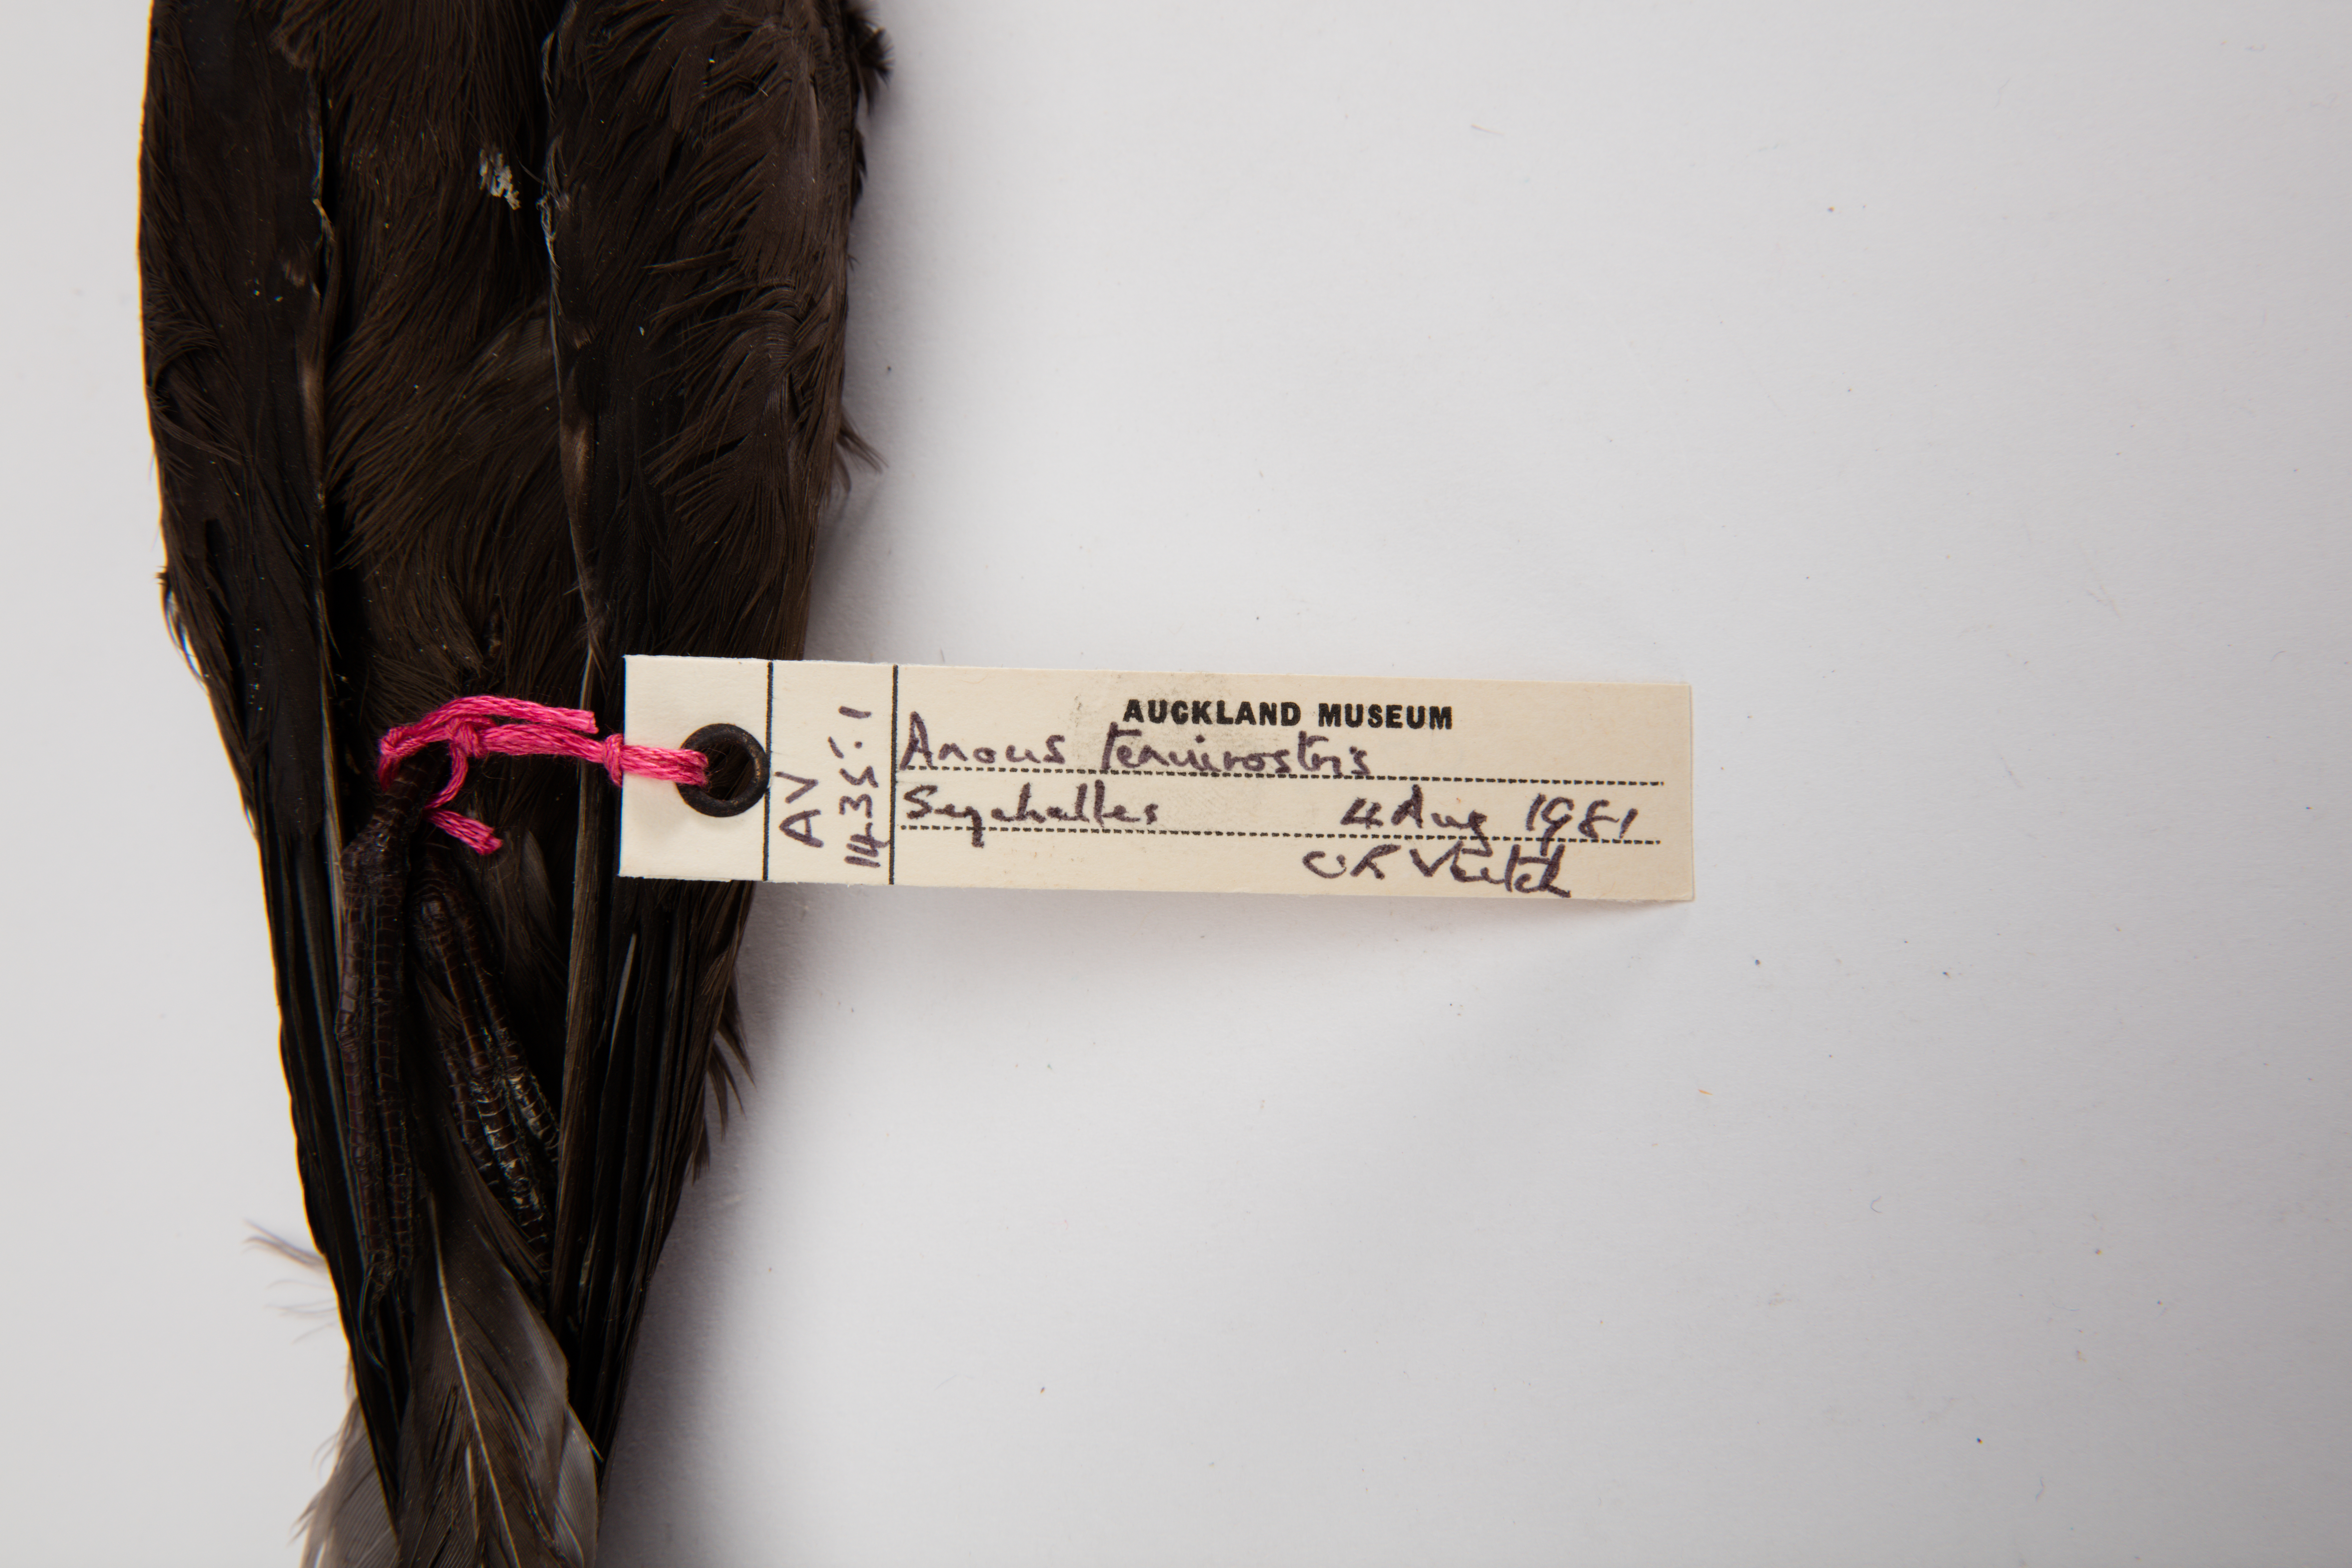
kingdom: Animalia
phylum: Chordata
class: Aves
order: Charadriiformes
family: Laridae
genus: Anous
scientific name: Anous tenuirostris
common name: Lesser noddy
